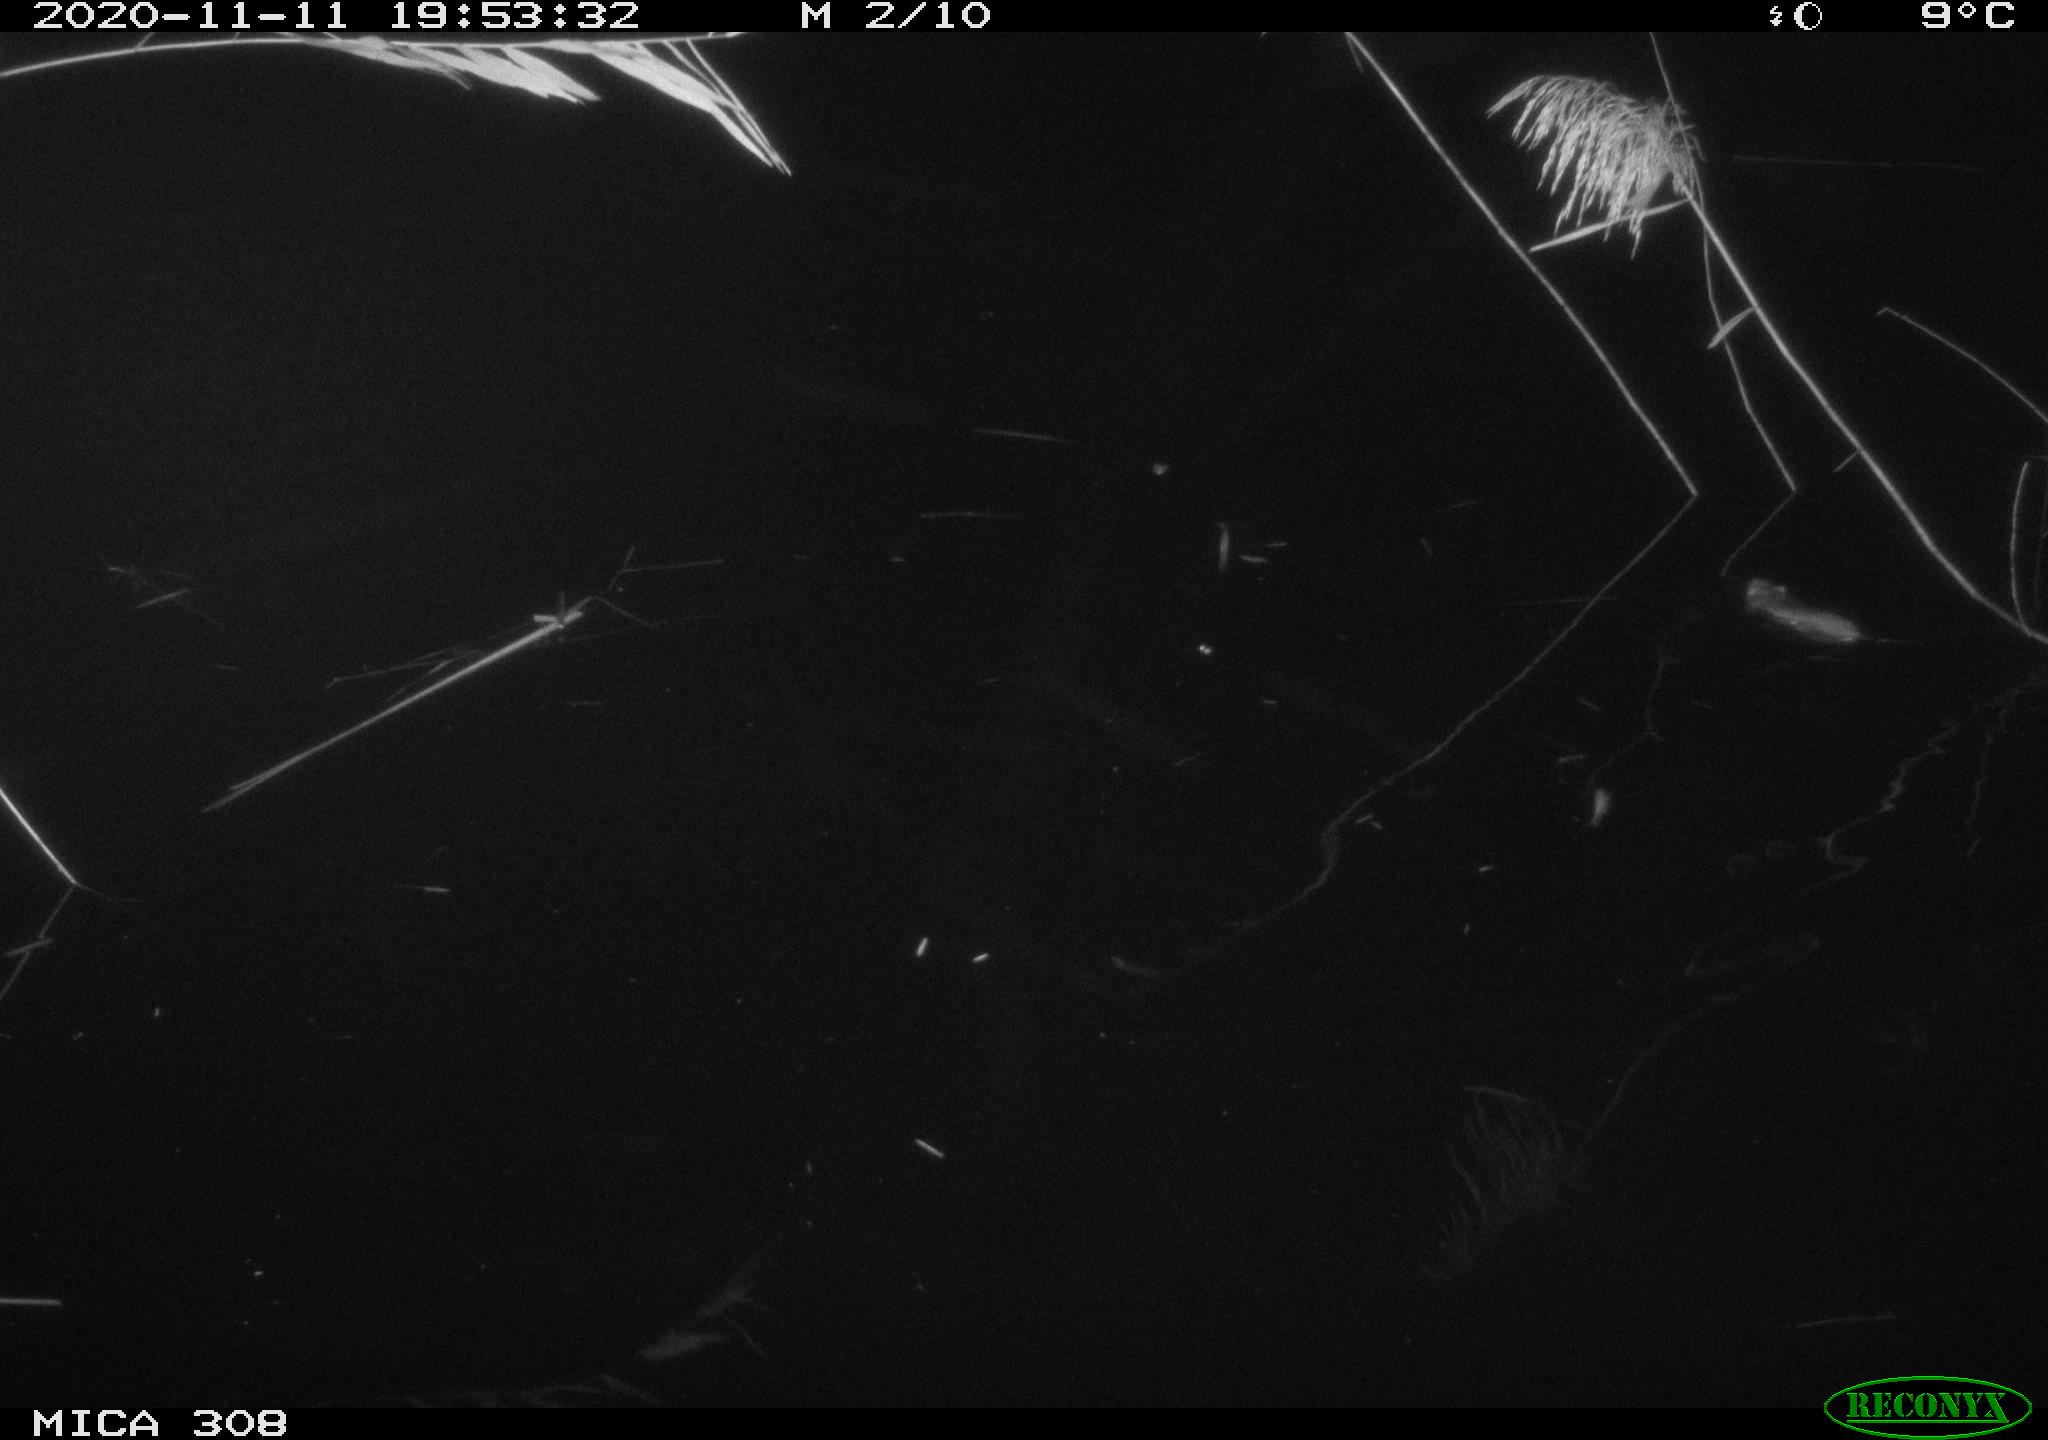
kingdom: Animalia
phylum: Chordata
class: Mammalia
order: Rodentia
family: Muridae
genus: Rattus
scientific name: Rattus norvegicus
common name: Brown rat
